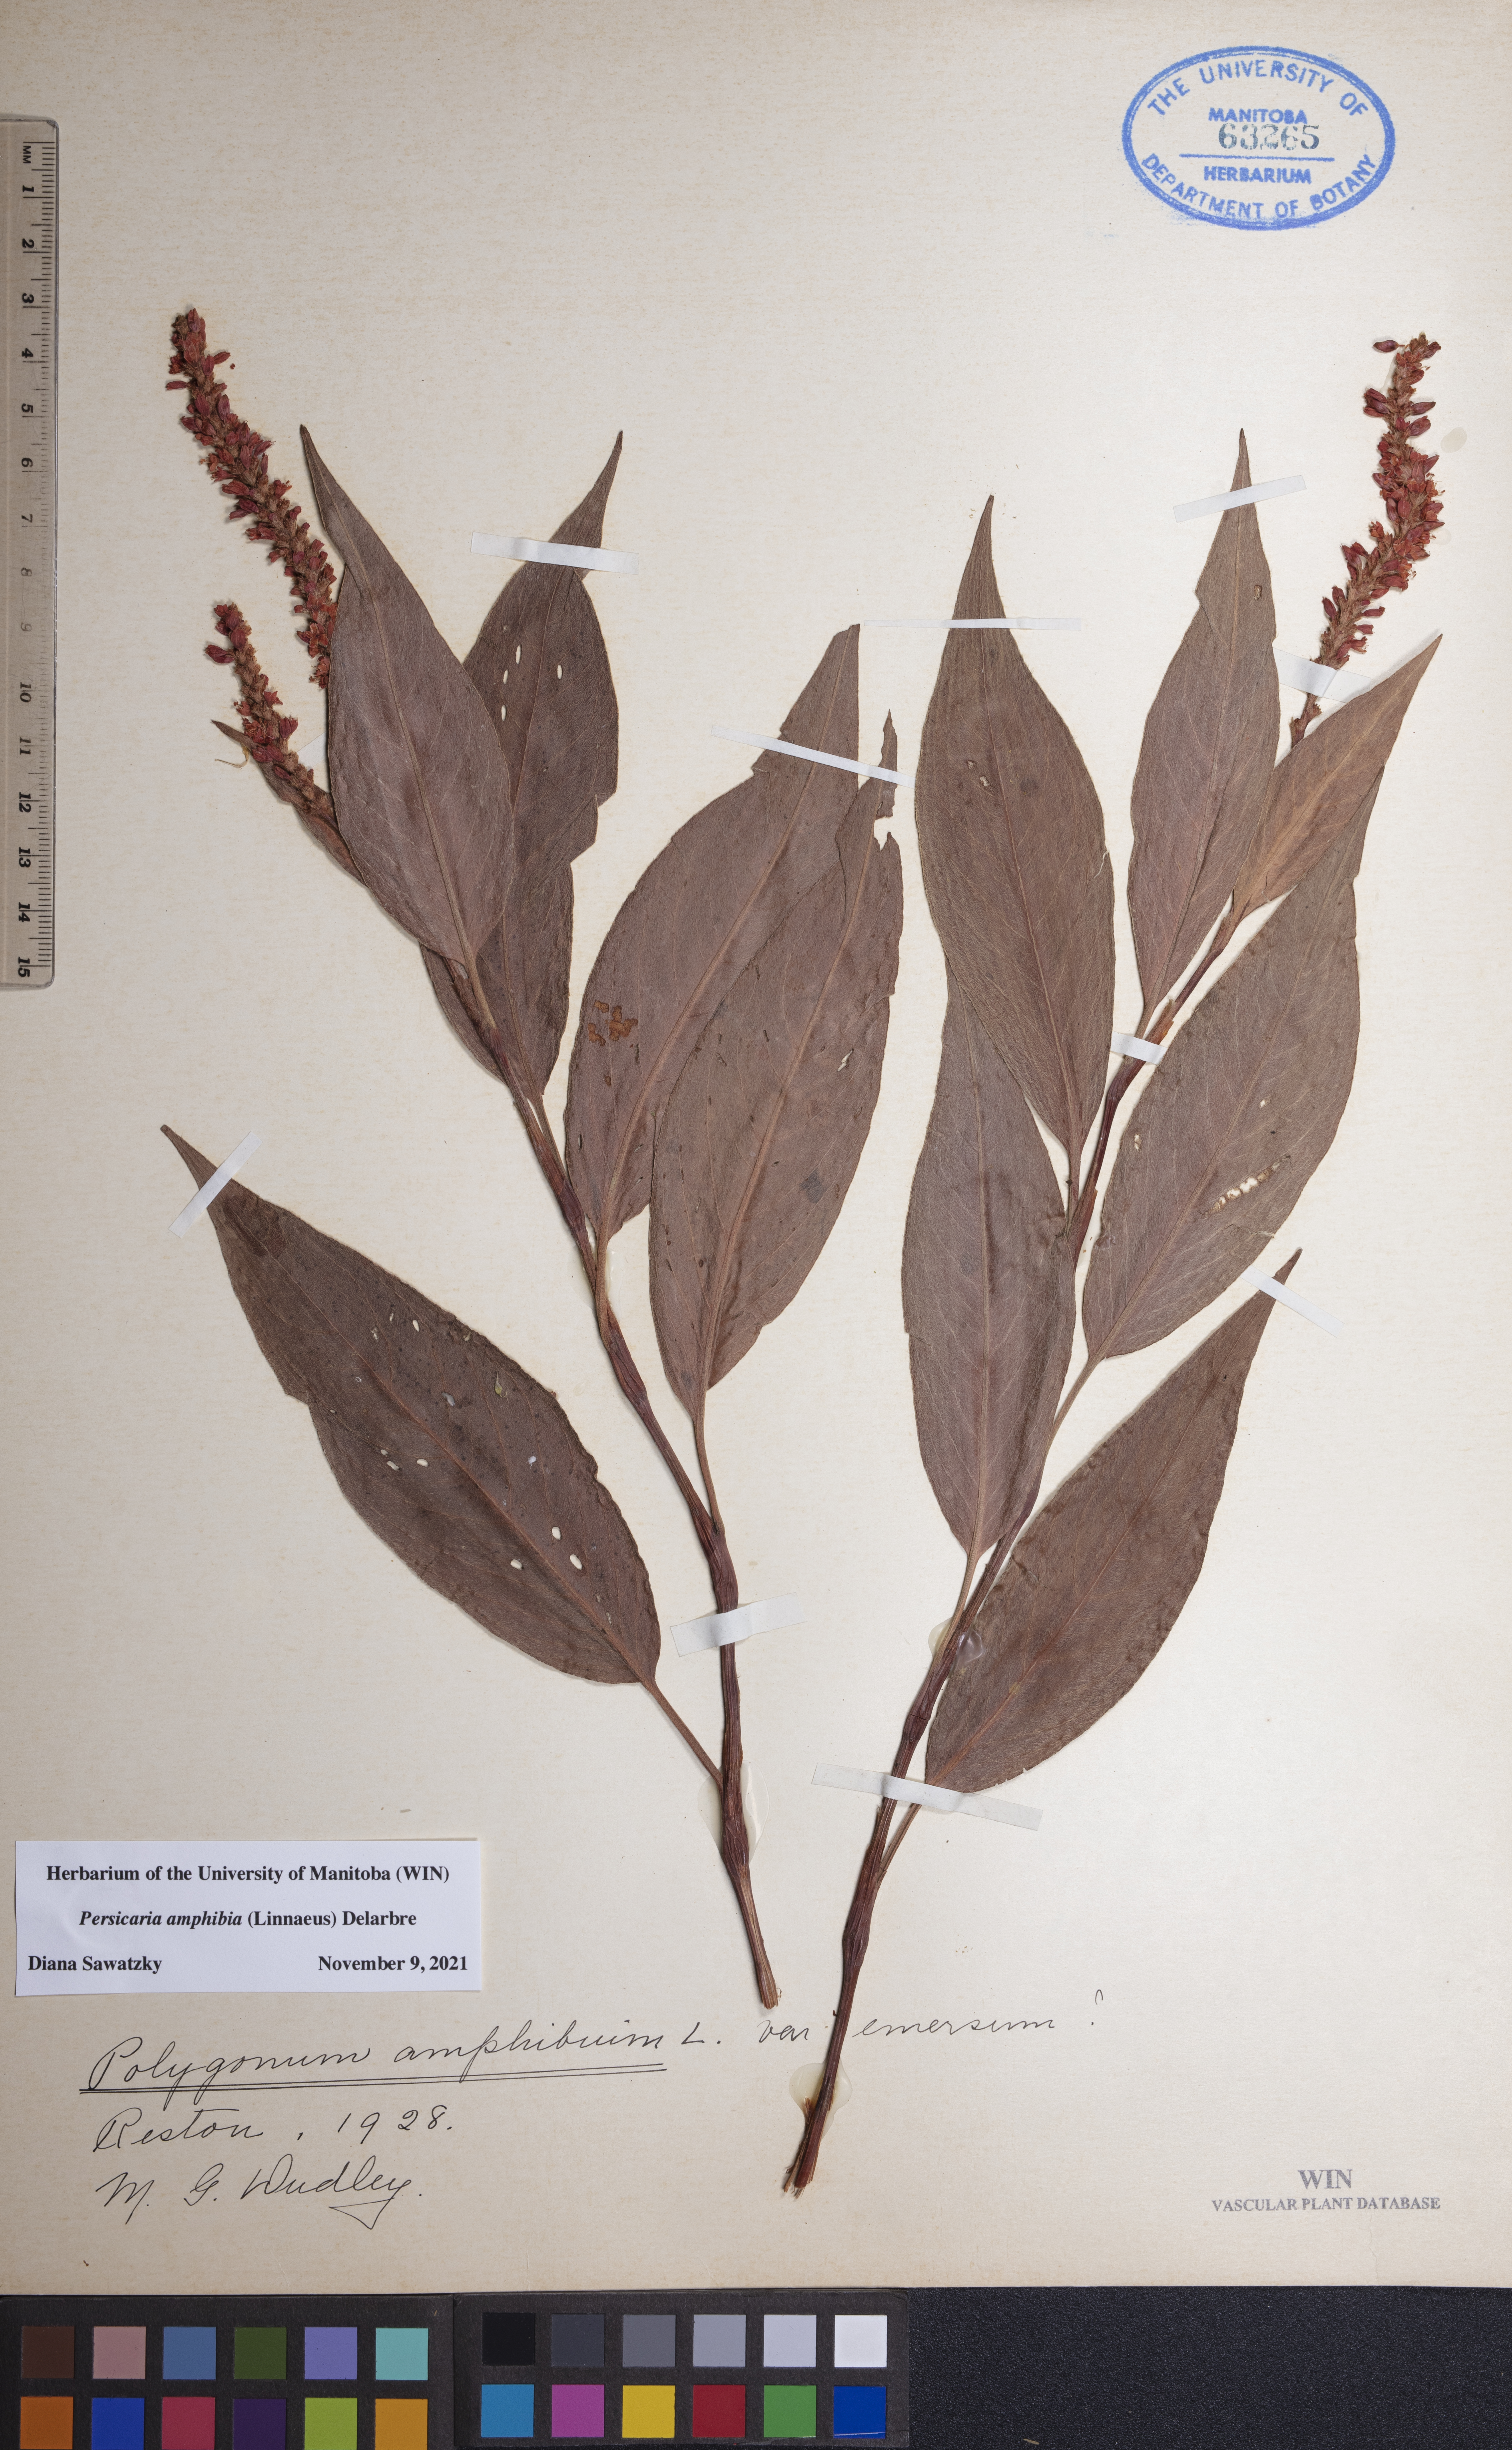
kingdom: Plantae
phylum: Tracheophyta
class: Magnoliopsida
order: Caryophyllales
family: Polygonaceae
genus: Persicaria
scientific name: Persicaria amphibia
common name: Amphibious bistort
